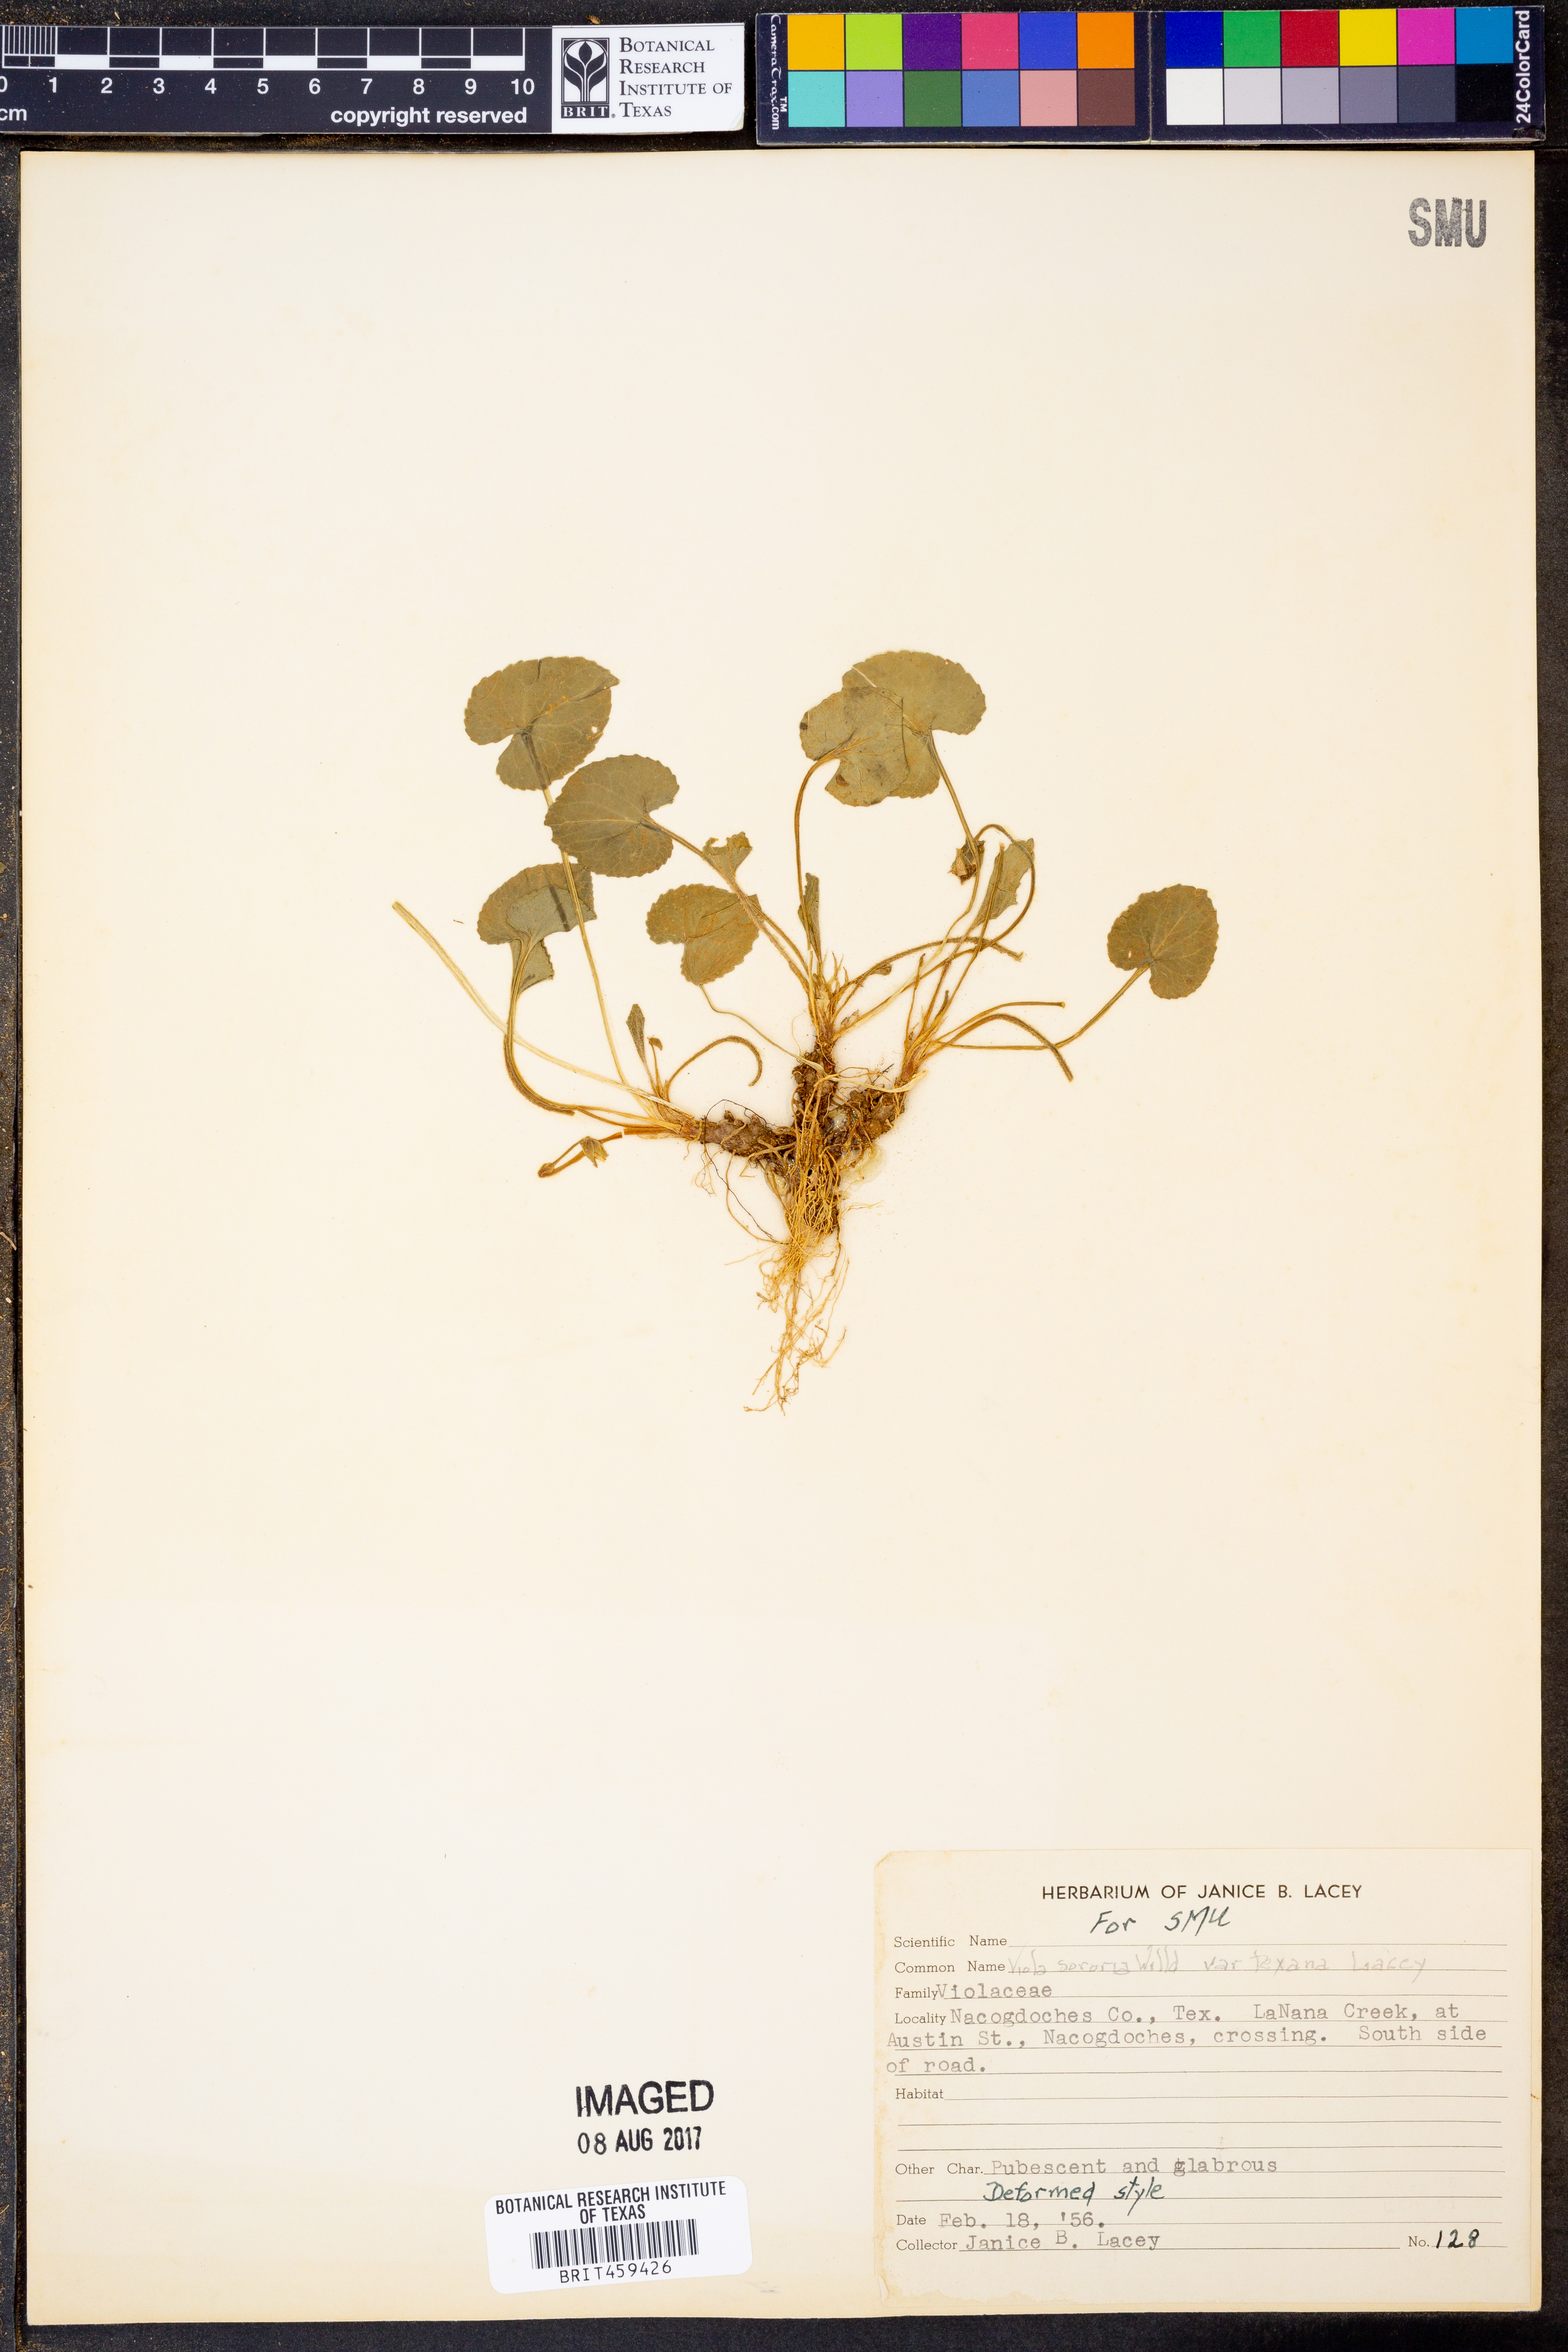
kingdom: Plantae
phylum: Tracheophyta
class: Magnoliopsida
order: Malpighiales
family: Violaceae
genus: Viola
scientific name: Viola sororia
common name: Dooryard violet
